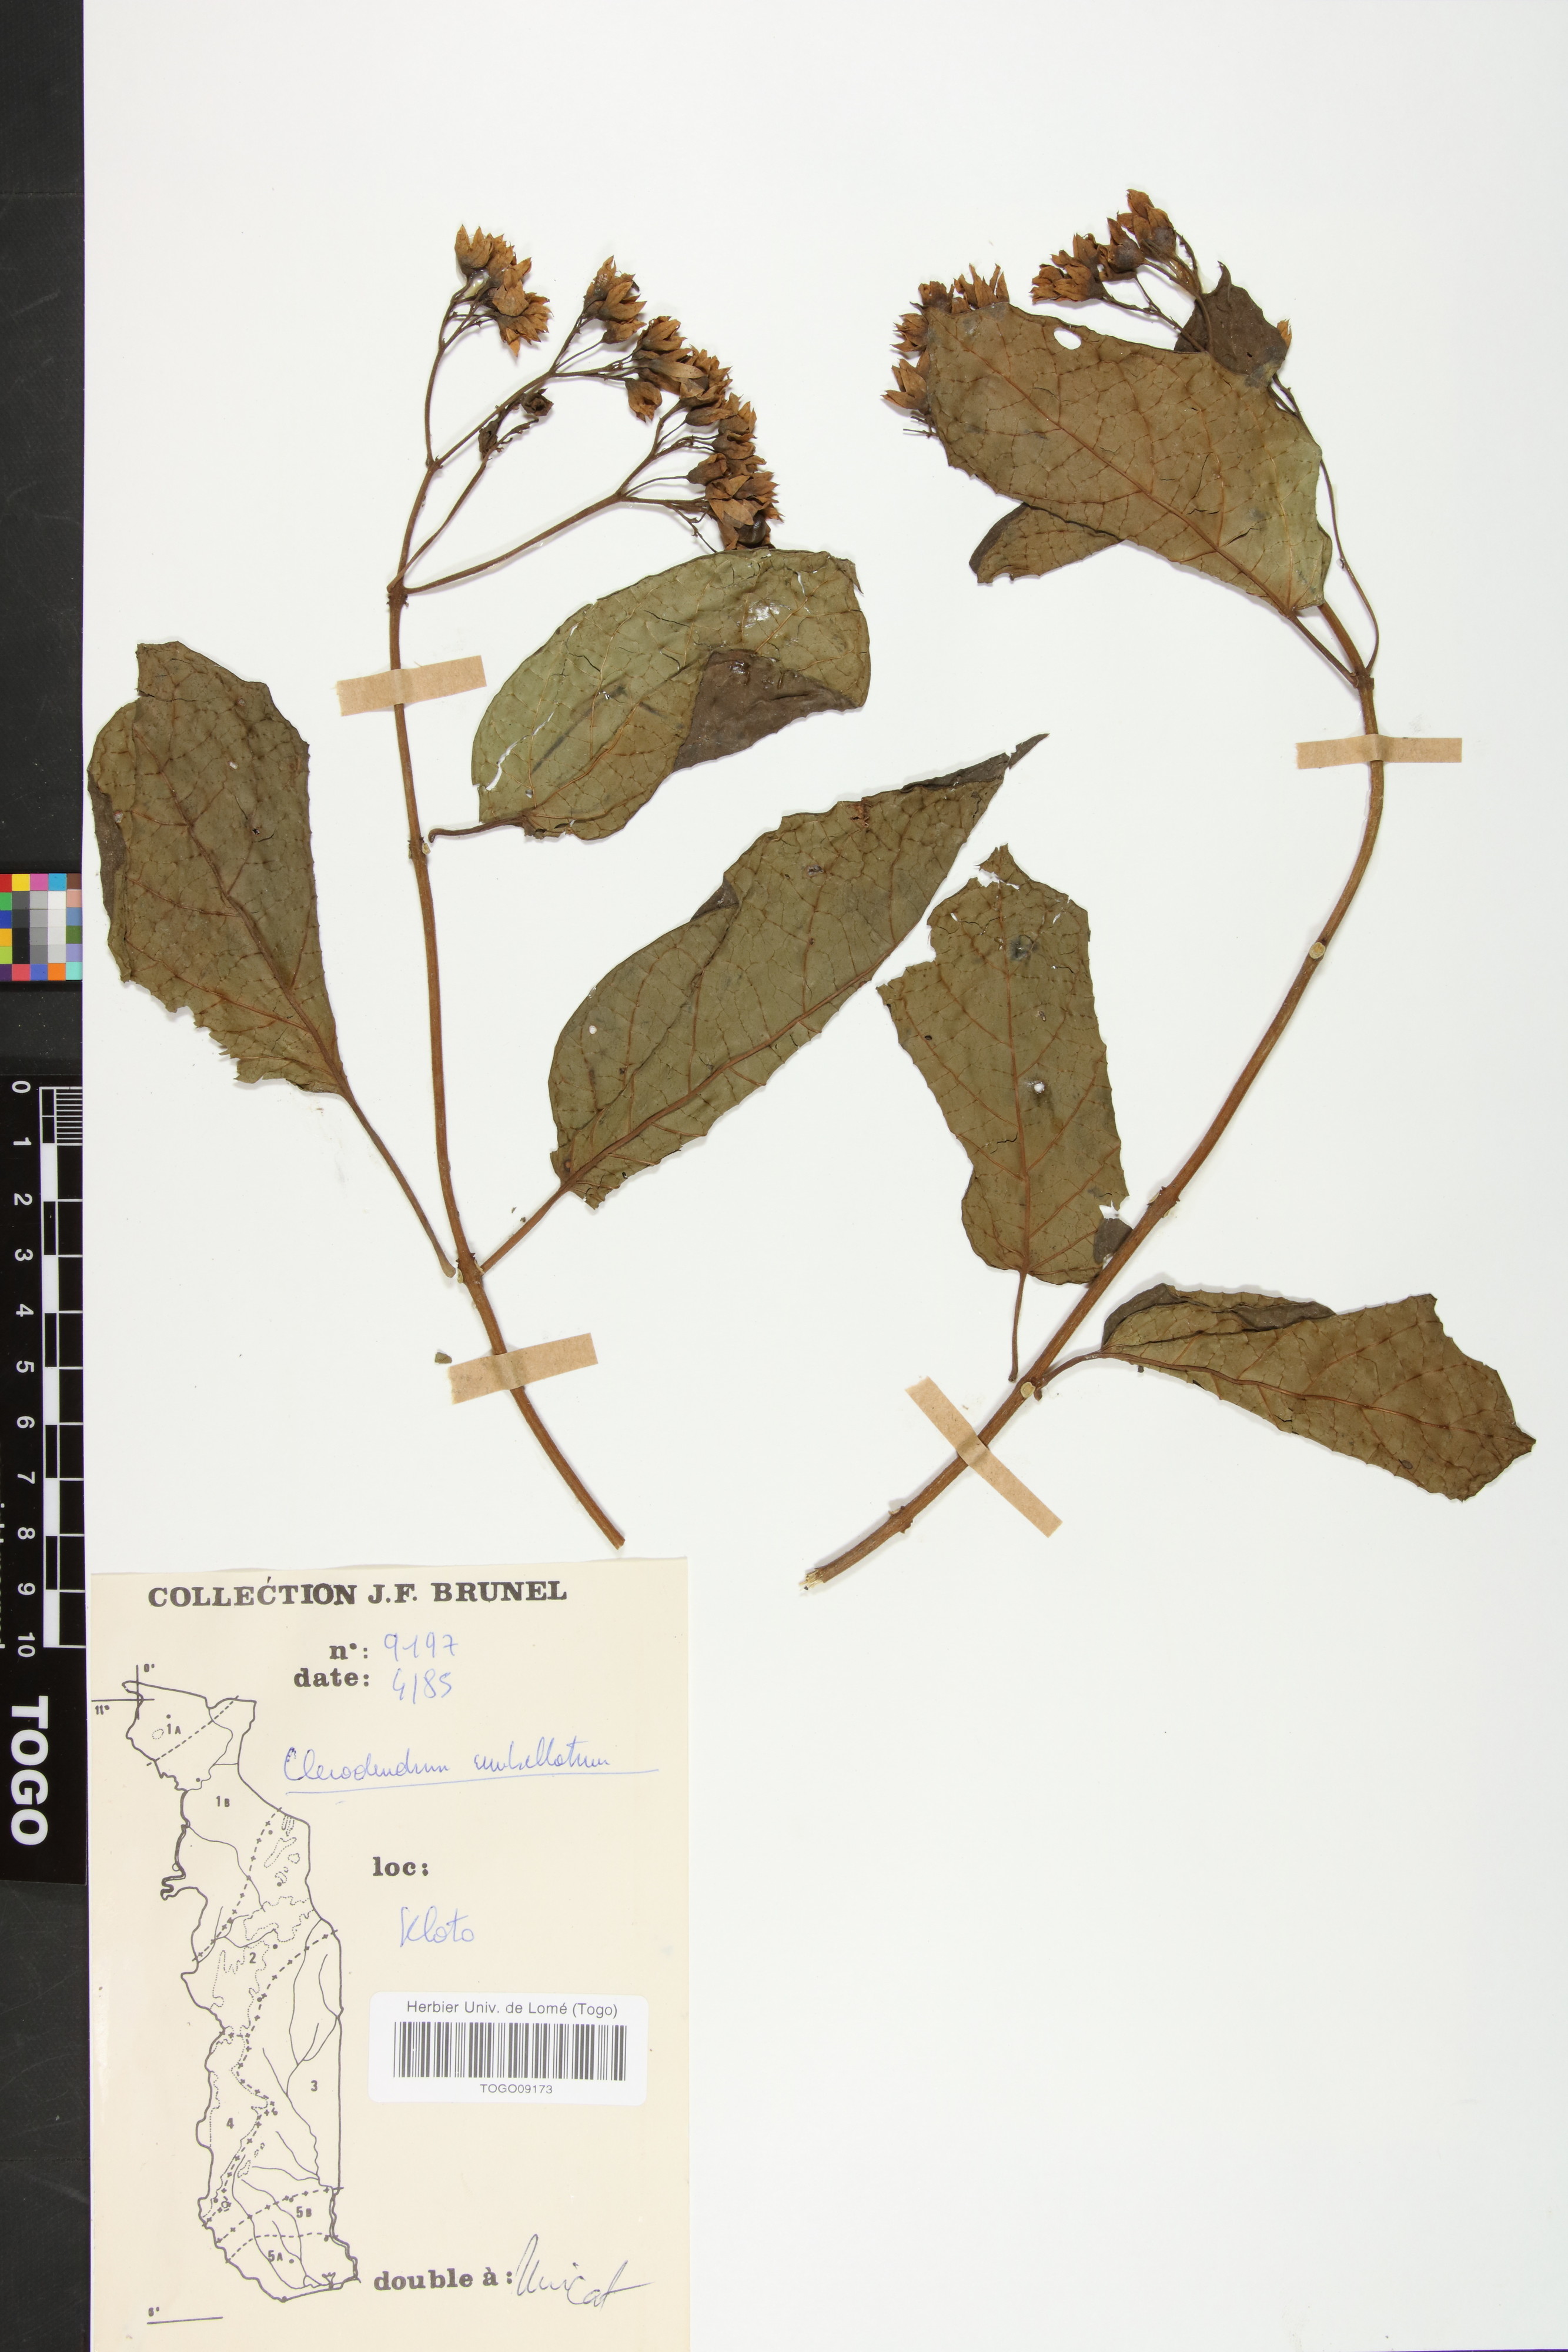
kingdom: Plantae
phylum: Tracheophyta
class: Magnoliopsida
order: Lamiales
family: Lamiaceae
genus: Clerodendrum
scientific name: Clerodendrum umbellatum
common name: Umbel clerodendrum
